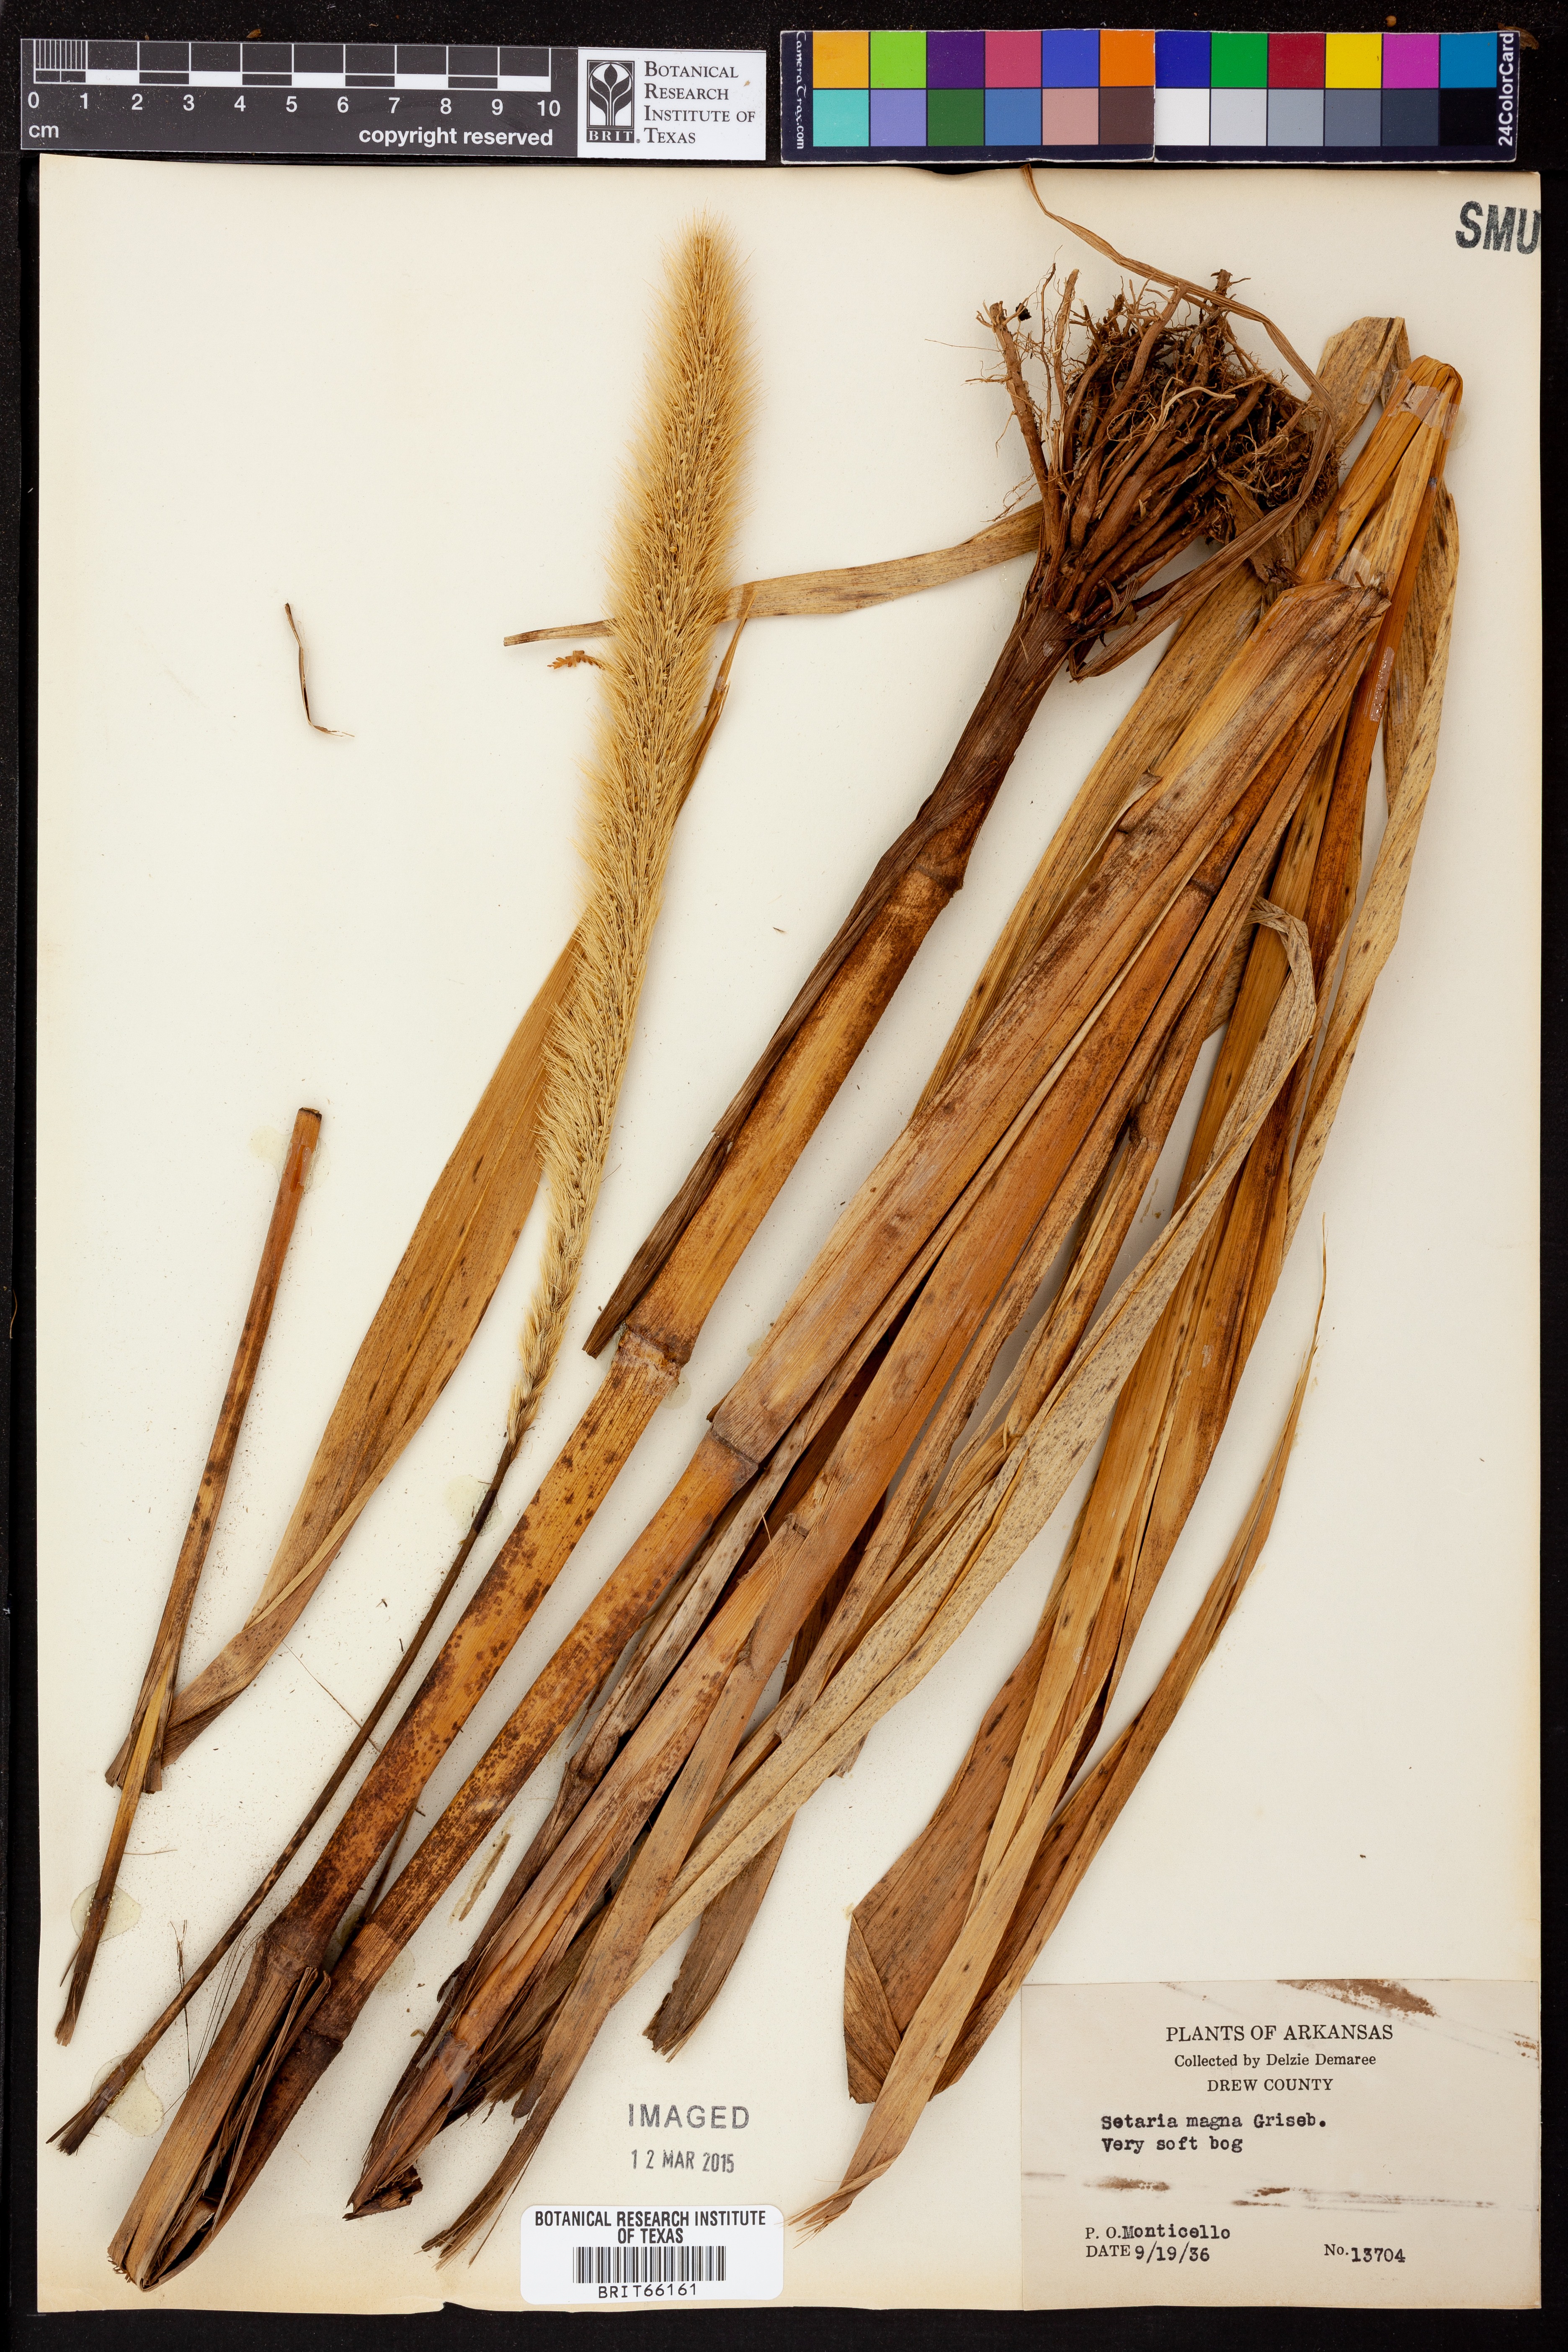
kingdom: Plantae
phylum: Tracheophyta
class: Liliopsida
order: Poales
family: Poaceae
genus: Setaria
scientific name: Setaria magna
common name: Giant bristle grass
